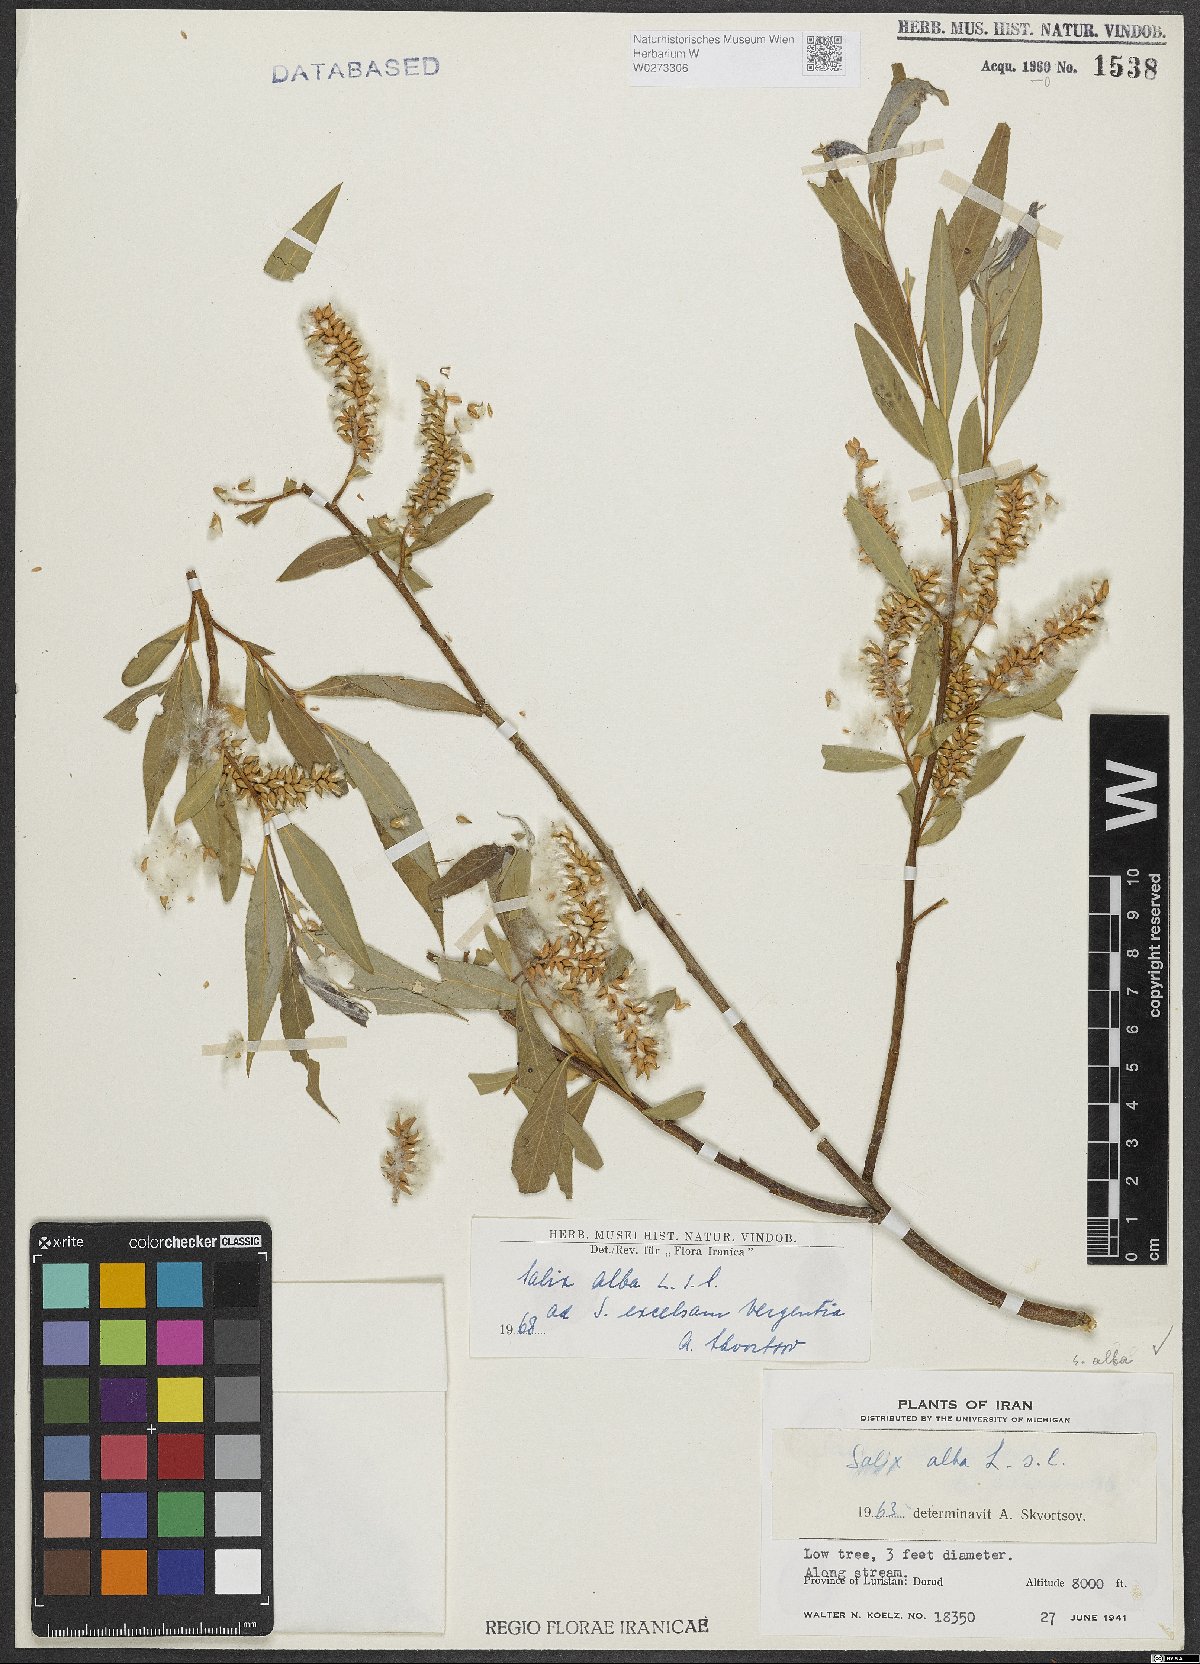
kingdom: Plantae
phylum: Tracheophyta
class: Magnoliopsida
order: Malpighiales
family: Salicaceae
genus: Salix
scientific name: Salix alba
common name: White willow
